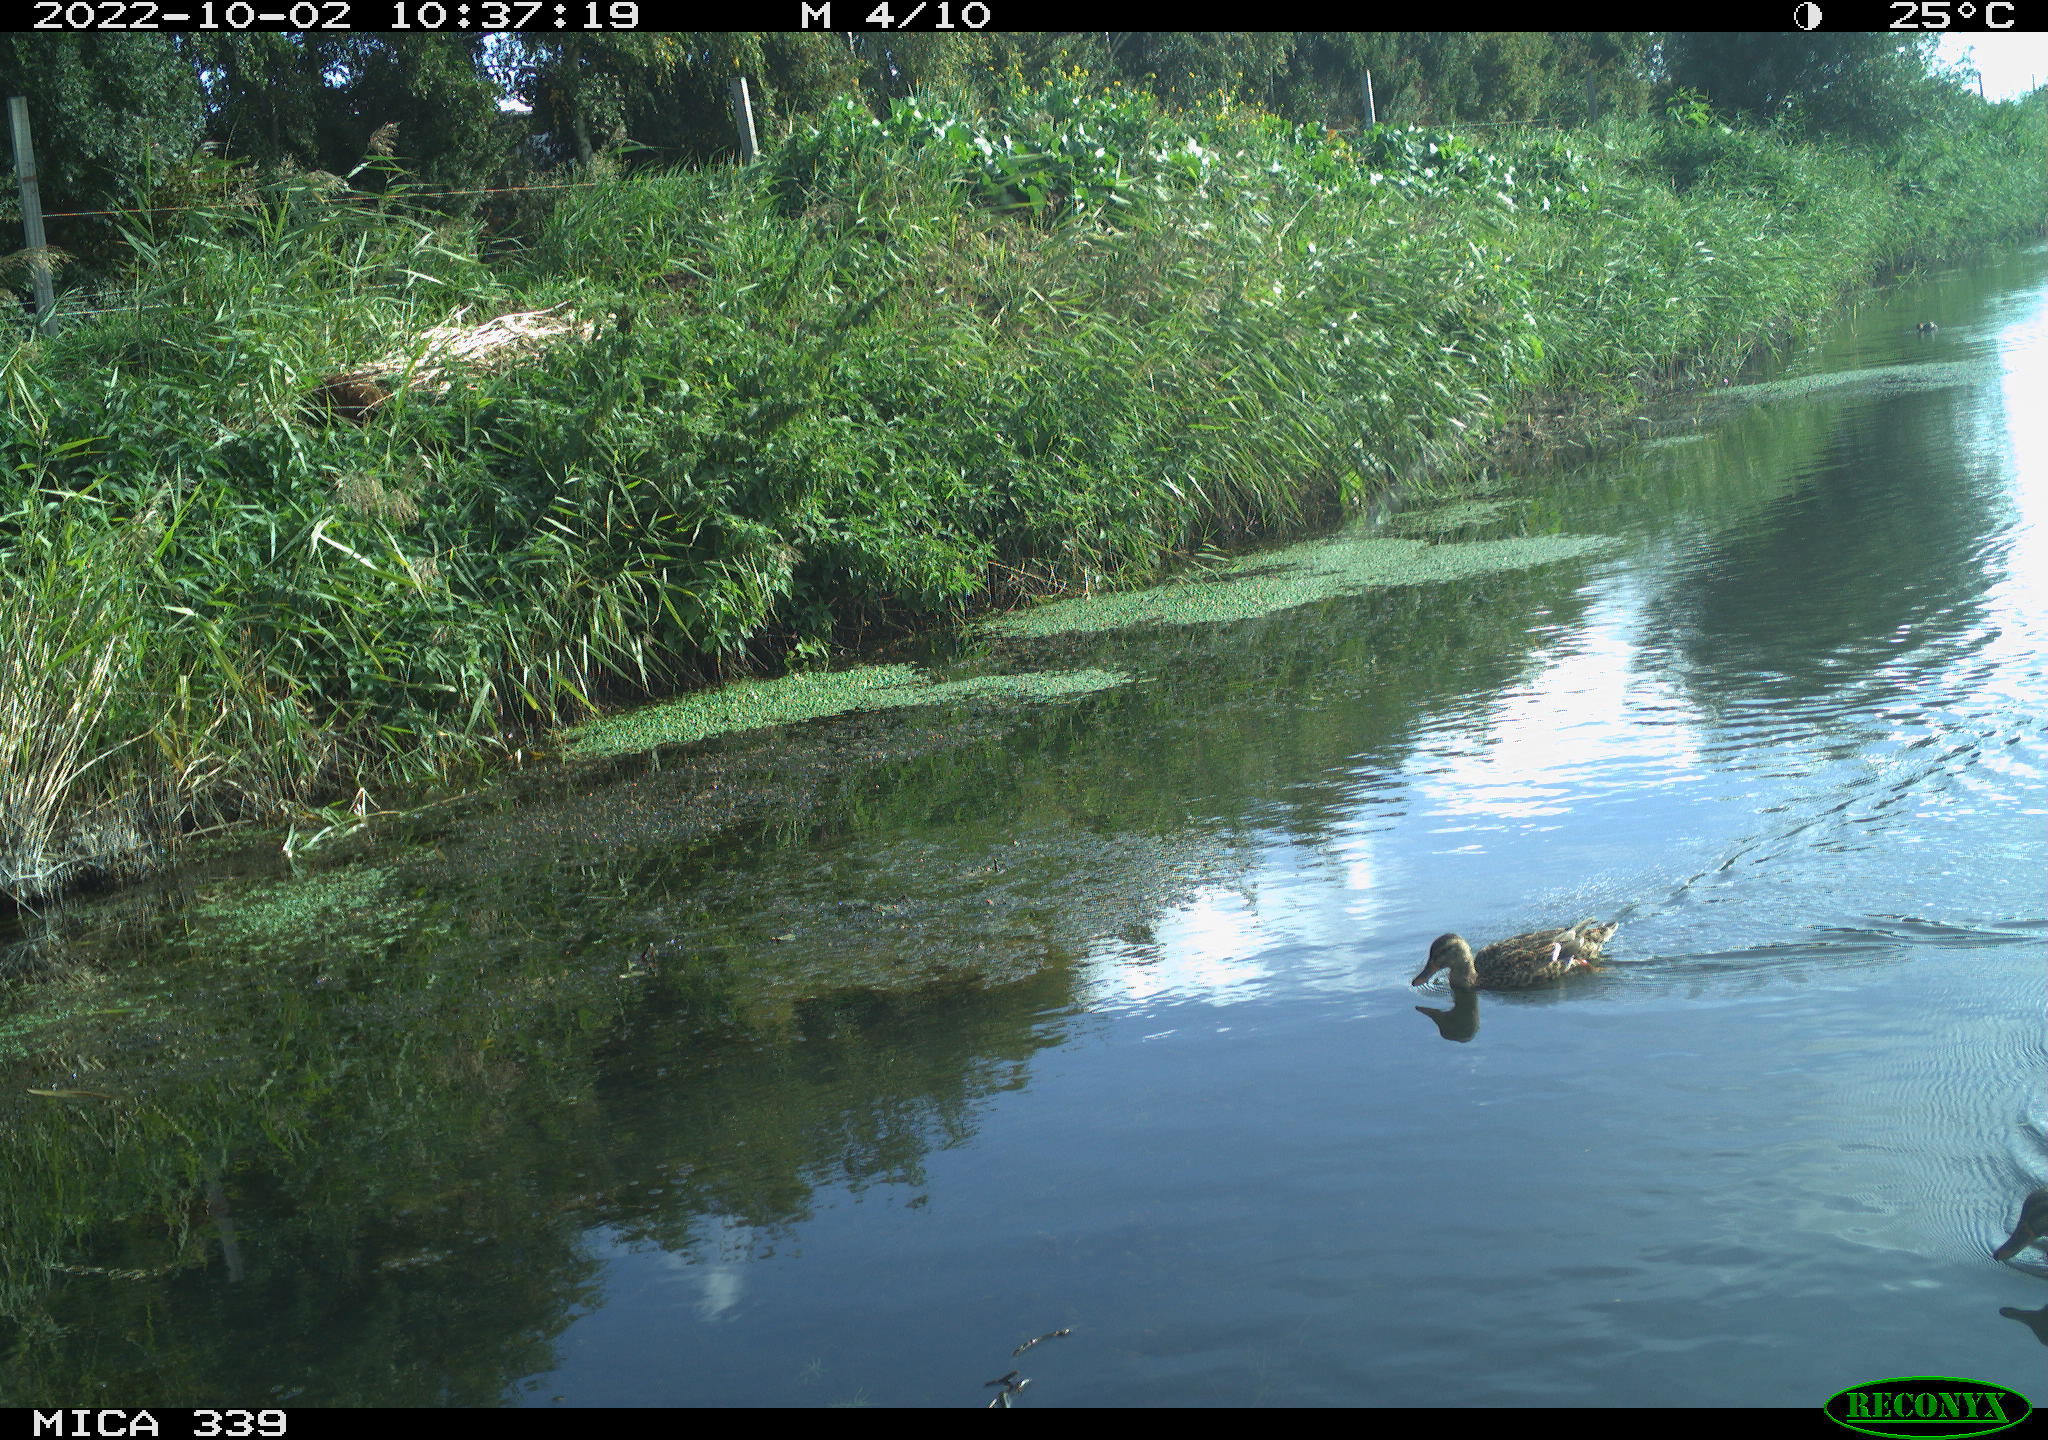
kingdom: Animalia
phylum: Chordata
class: Aves
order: Anseriformes
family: Anatidae
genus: Anas
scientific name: Anas platyrhynchos
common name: Mallard
